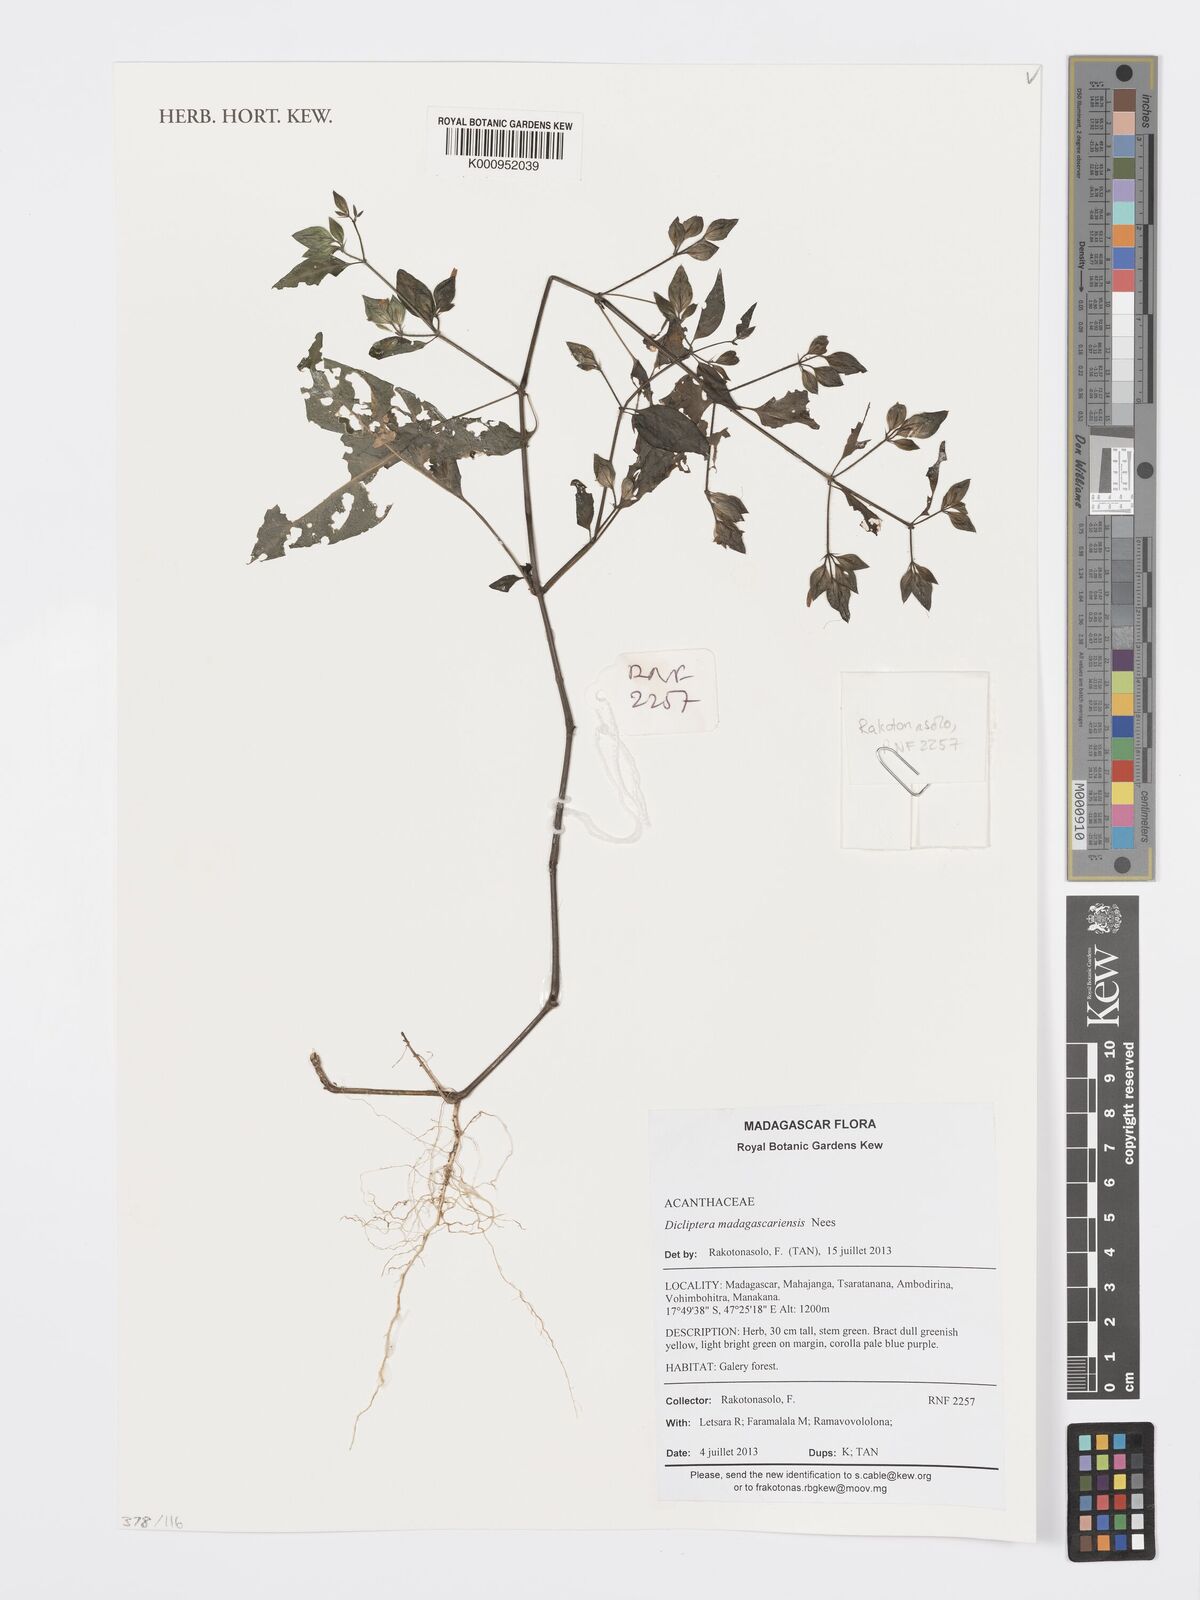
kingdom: Plantae
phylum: Tracheophyta
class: Magnoliopsida
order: Lamiales
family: Acanthaceae
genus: Dicliptera
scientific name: Dicliptera madagascariensis
